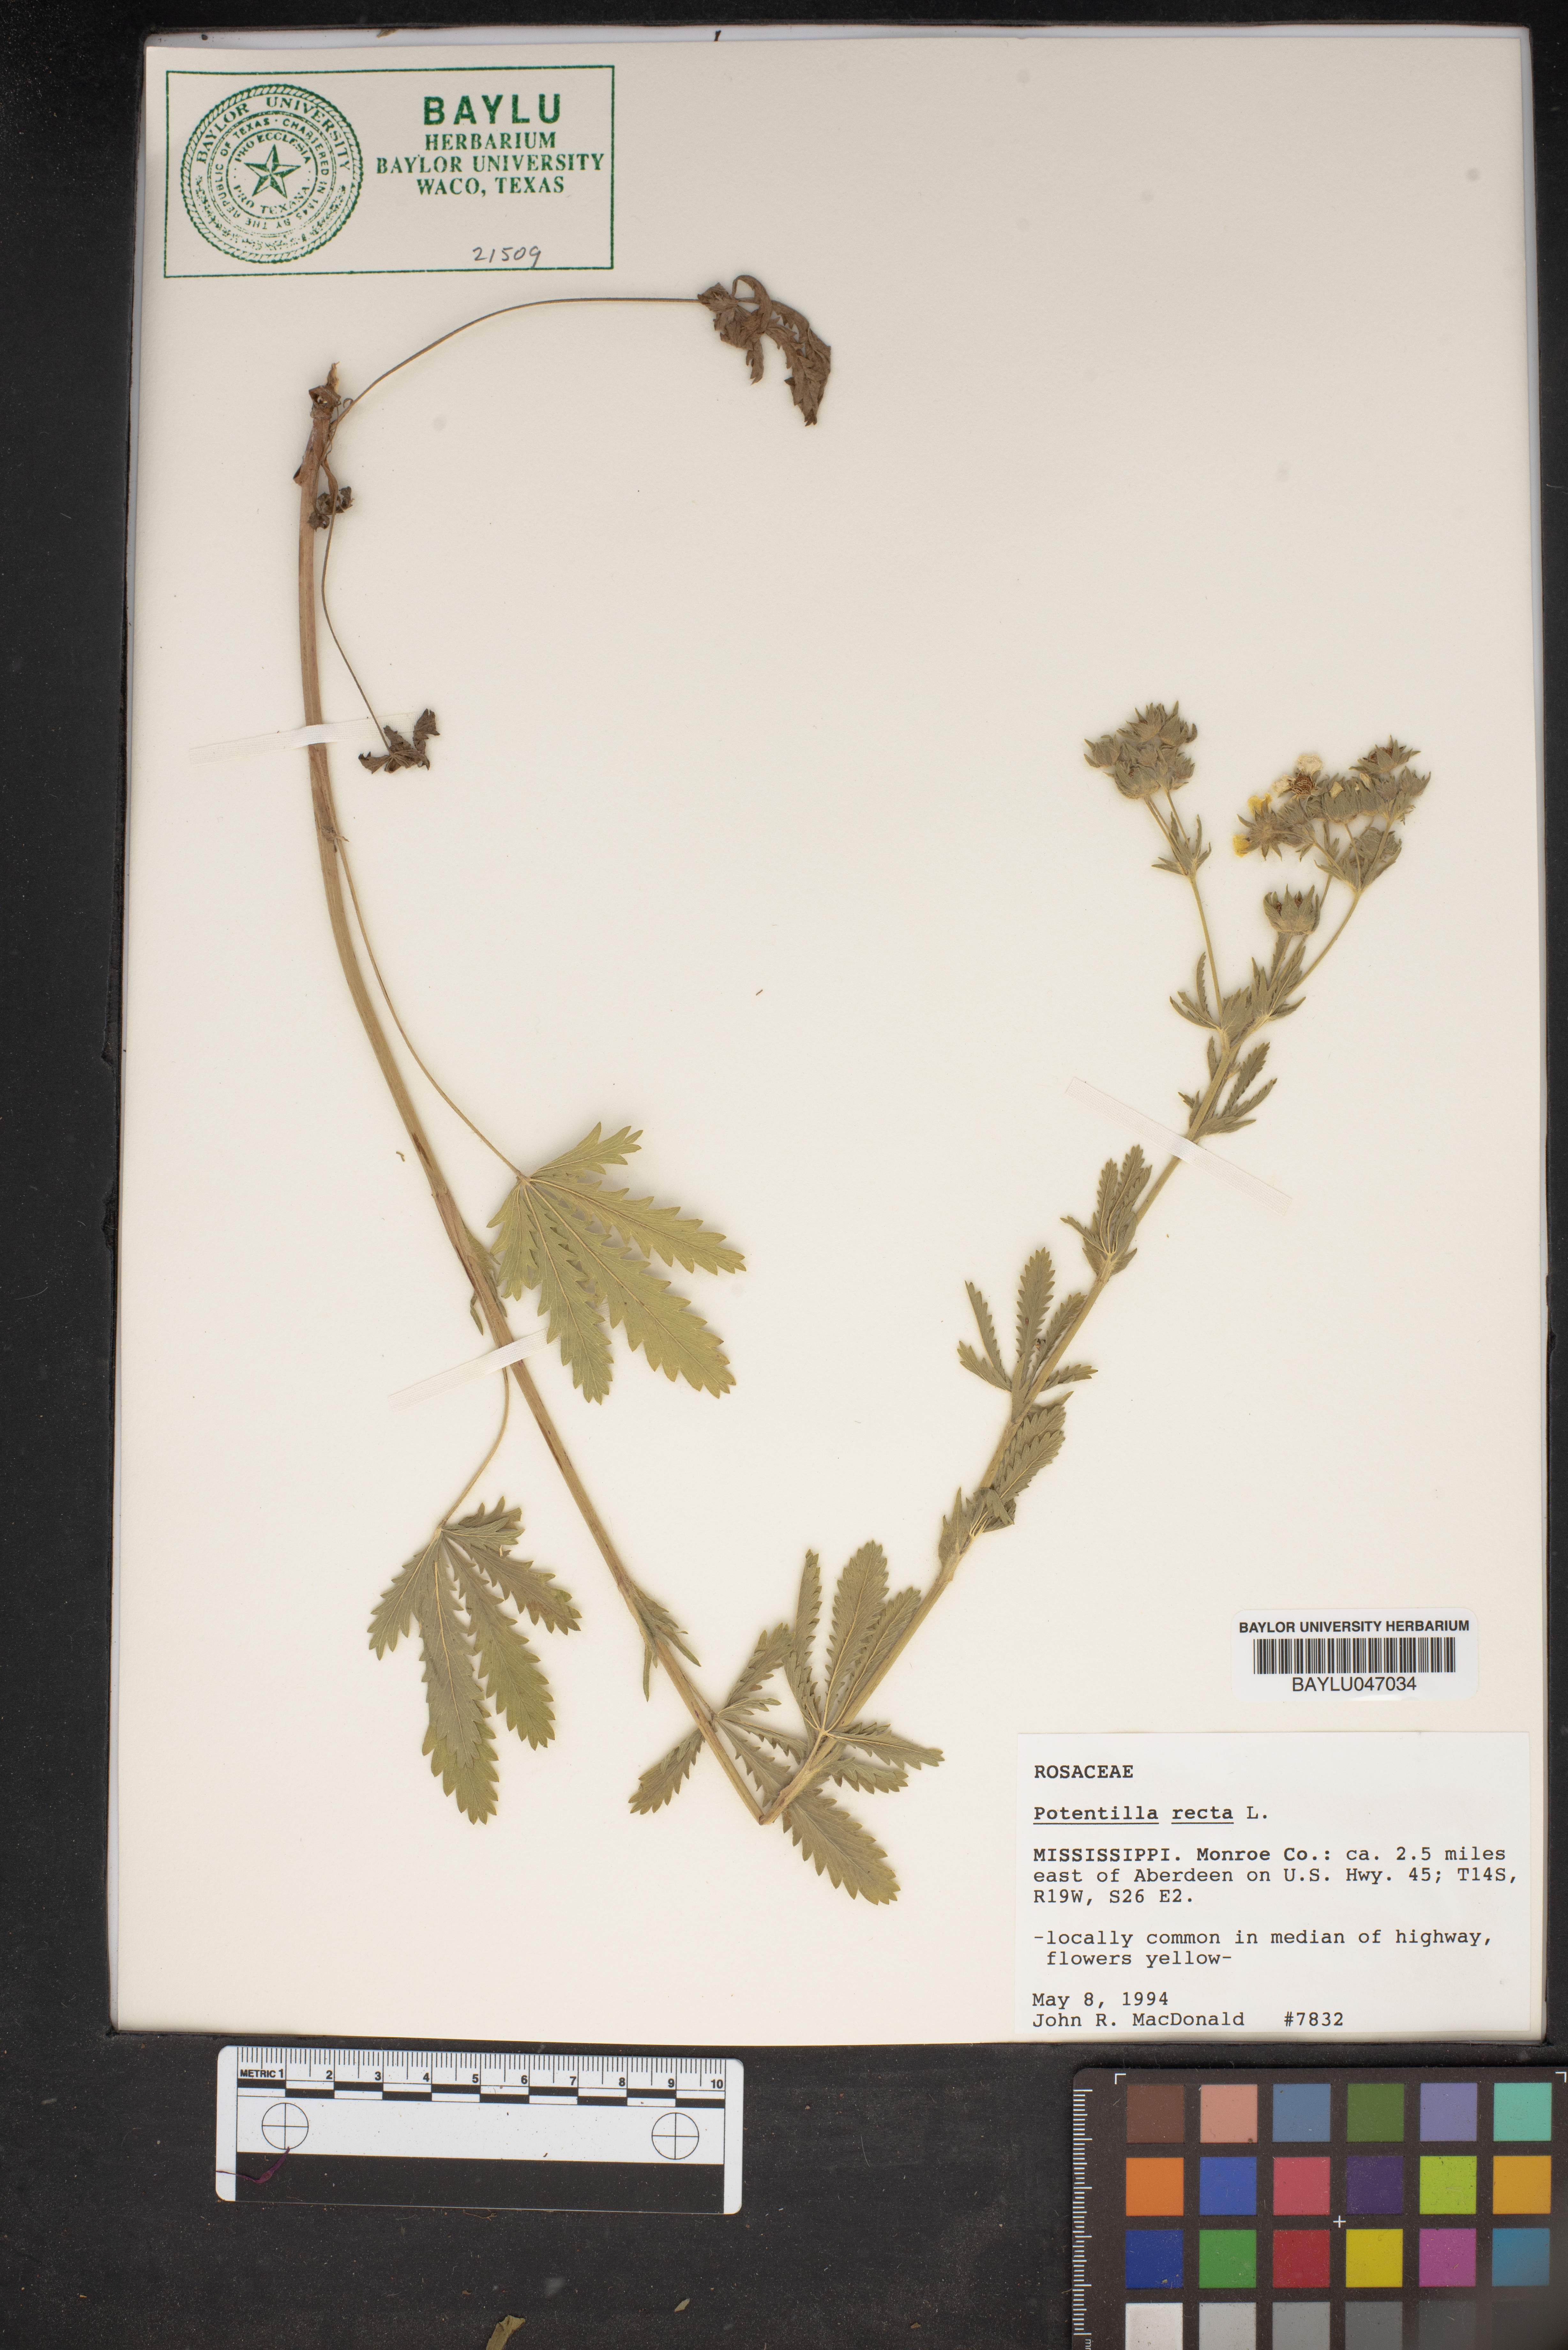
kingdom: Plantae
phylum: Tracheophyta
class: Magnoliopsida
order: Rosales
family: Rosaceae
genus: Potentilla
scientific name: Potentilla recta
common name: Sulphur cinquefoil
